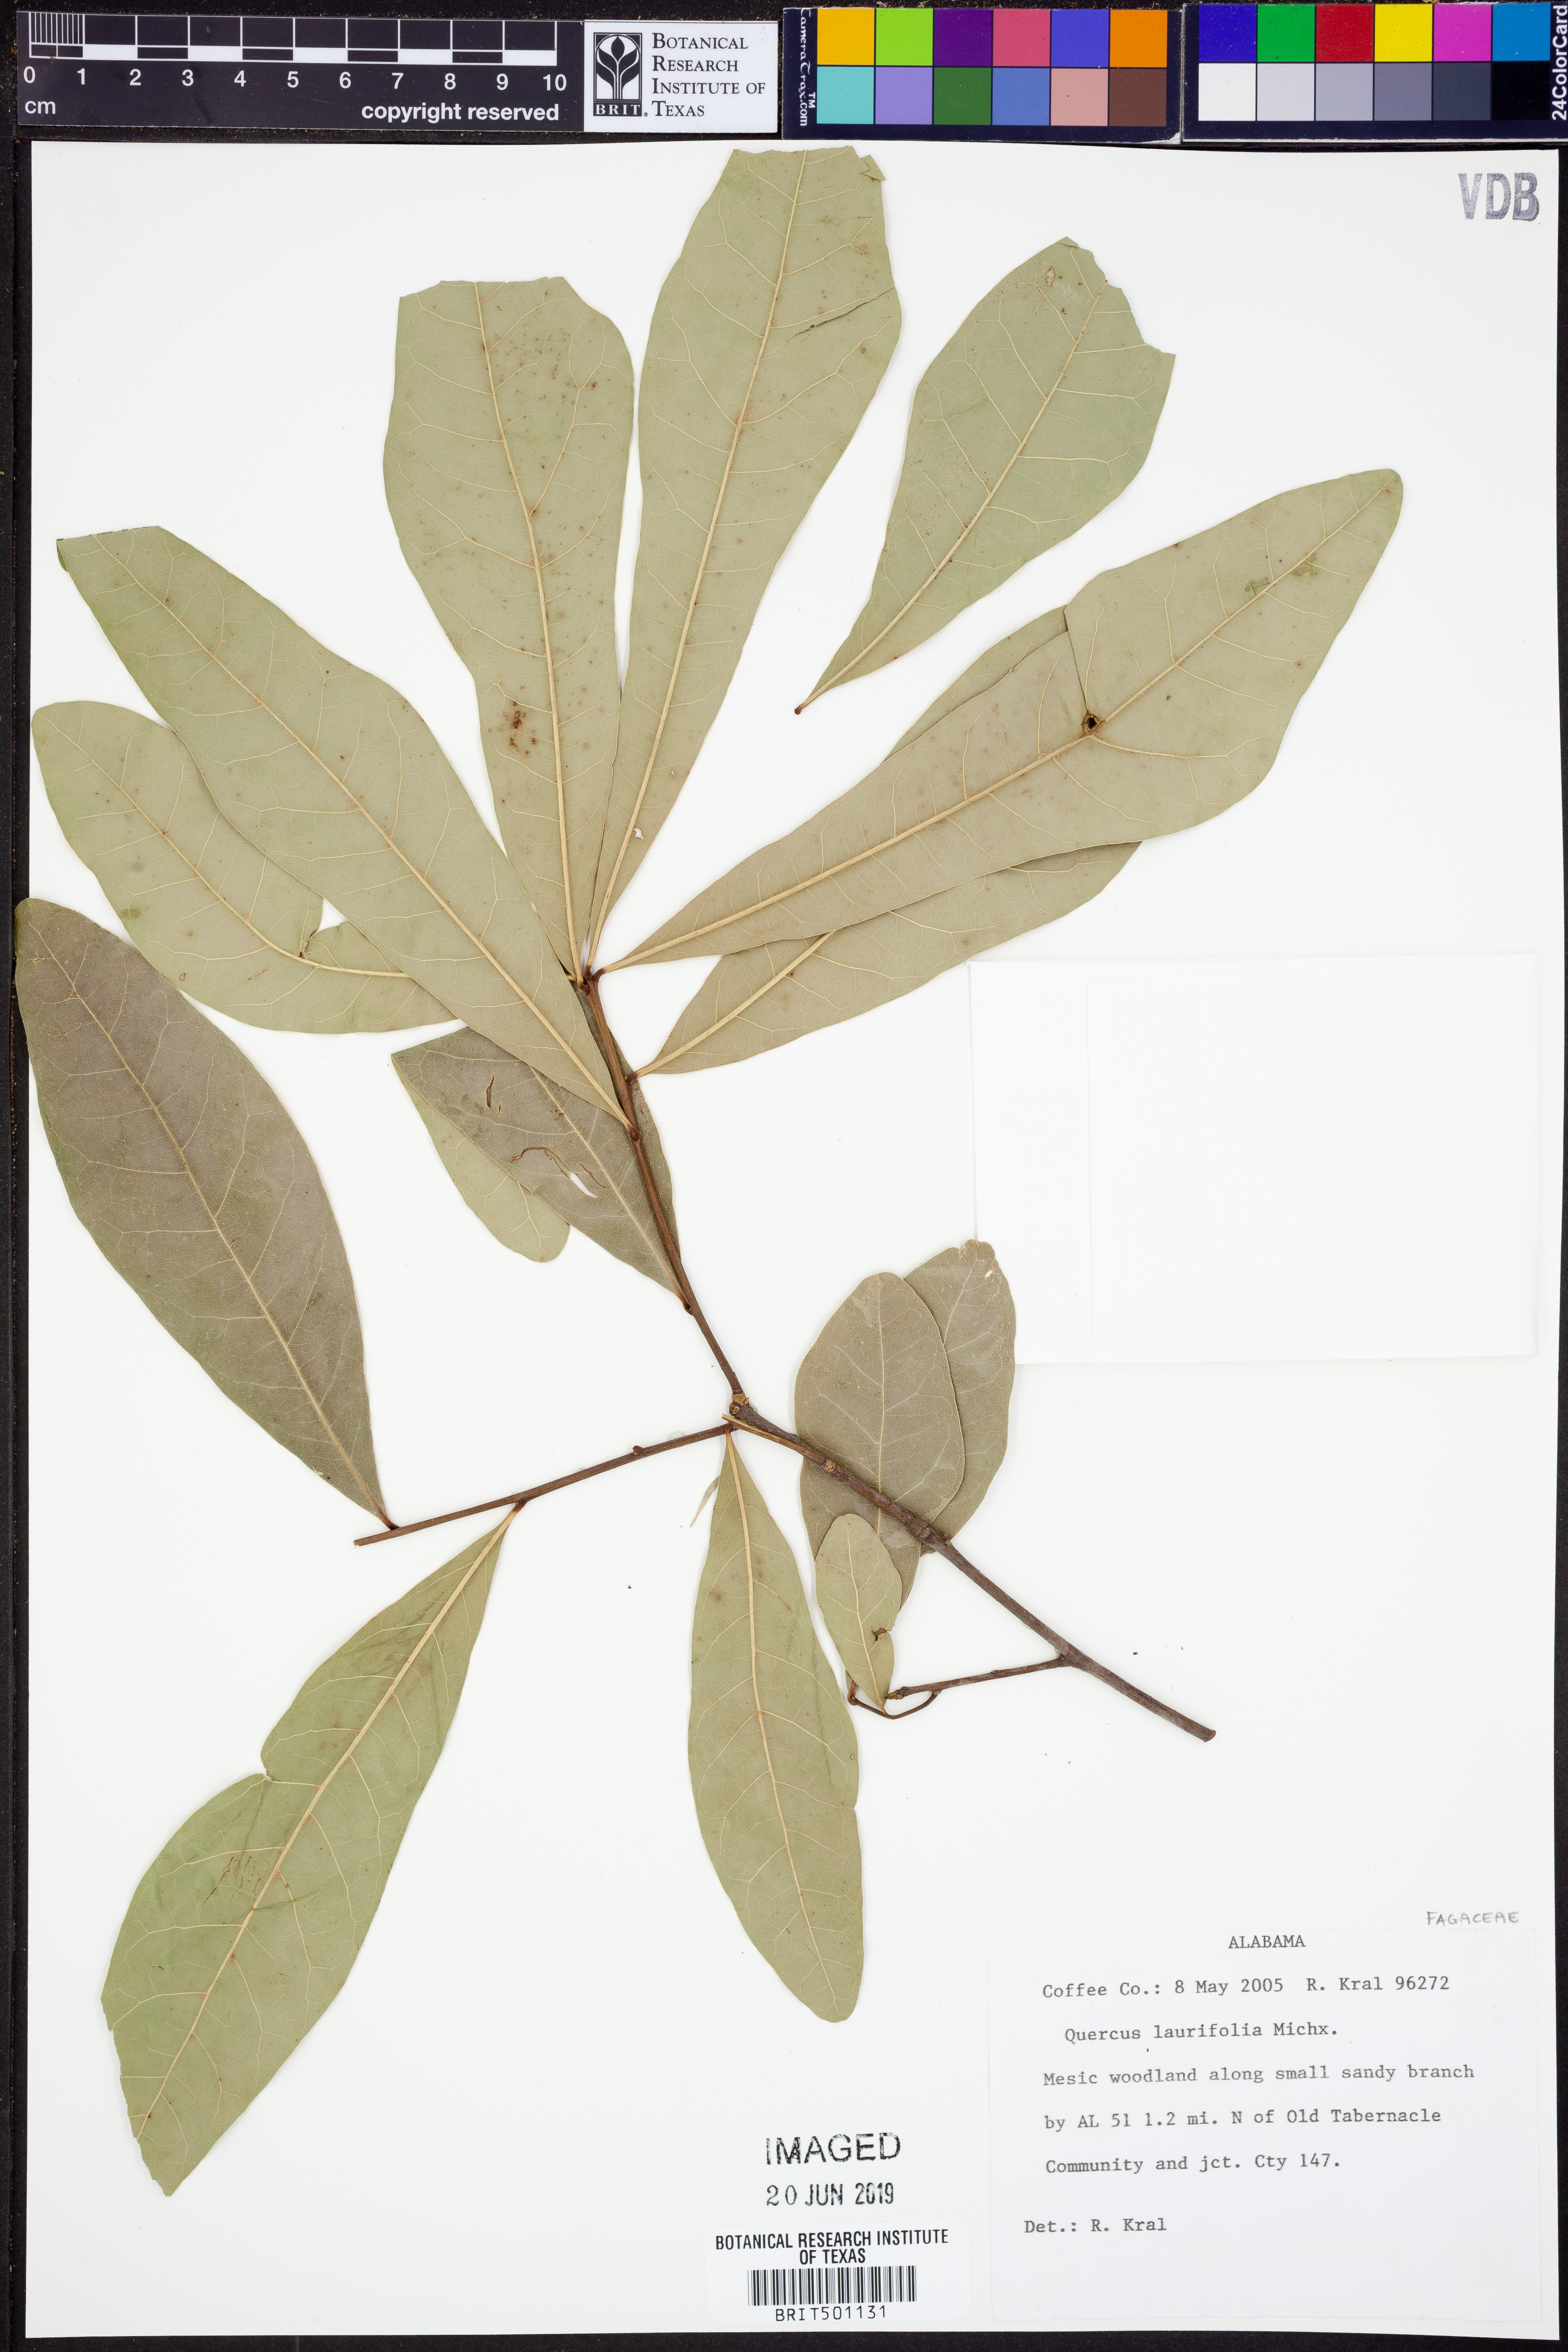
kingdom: Plantae
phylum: Tracheophyta
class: Magnoliopsida
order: Fagales
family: Fagaceae
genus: Quercus
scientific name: Quercus laurifolia
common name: Swamp laurel oak
